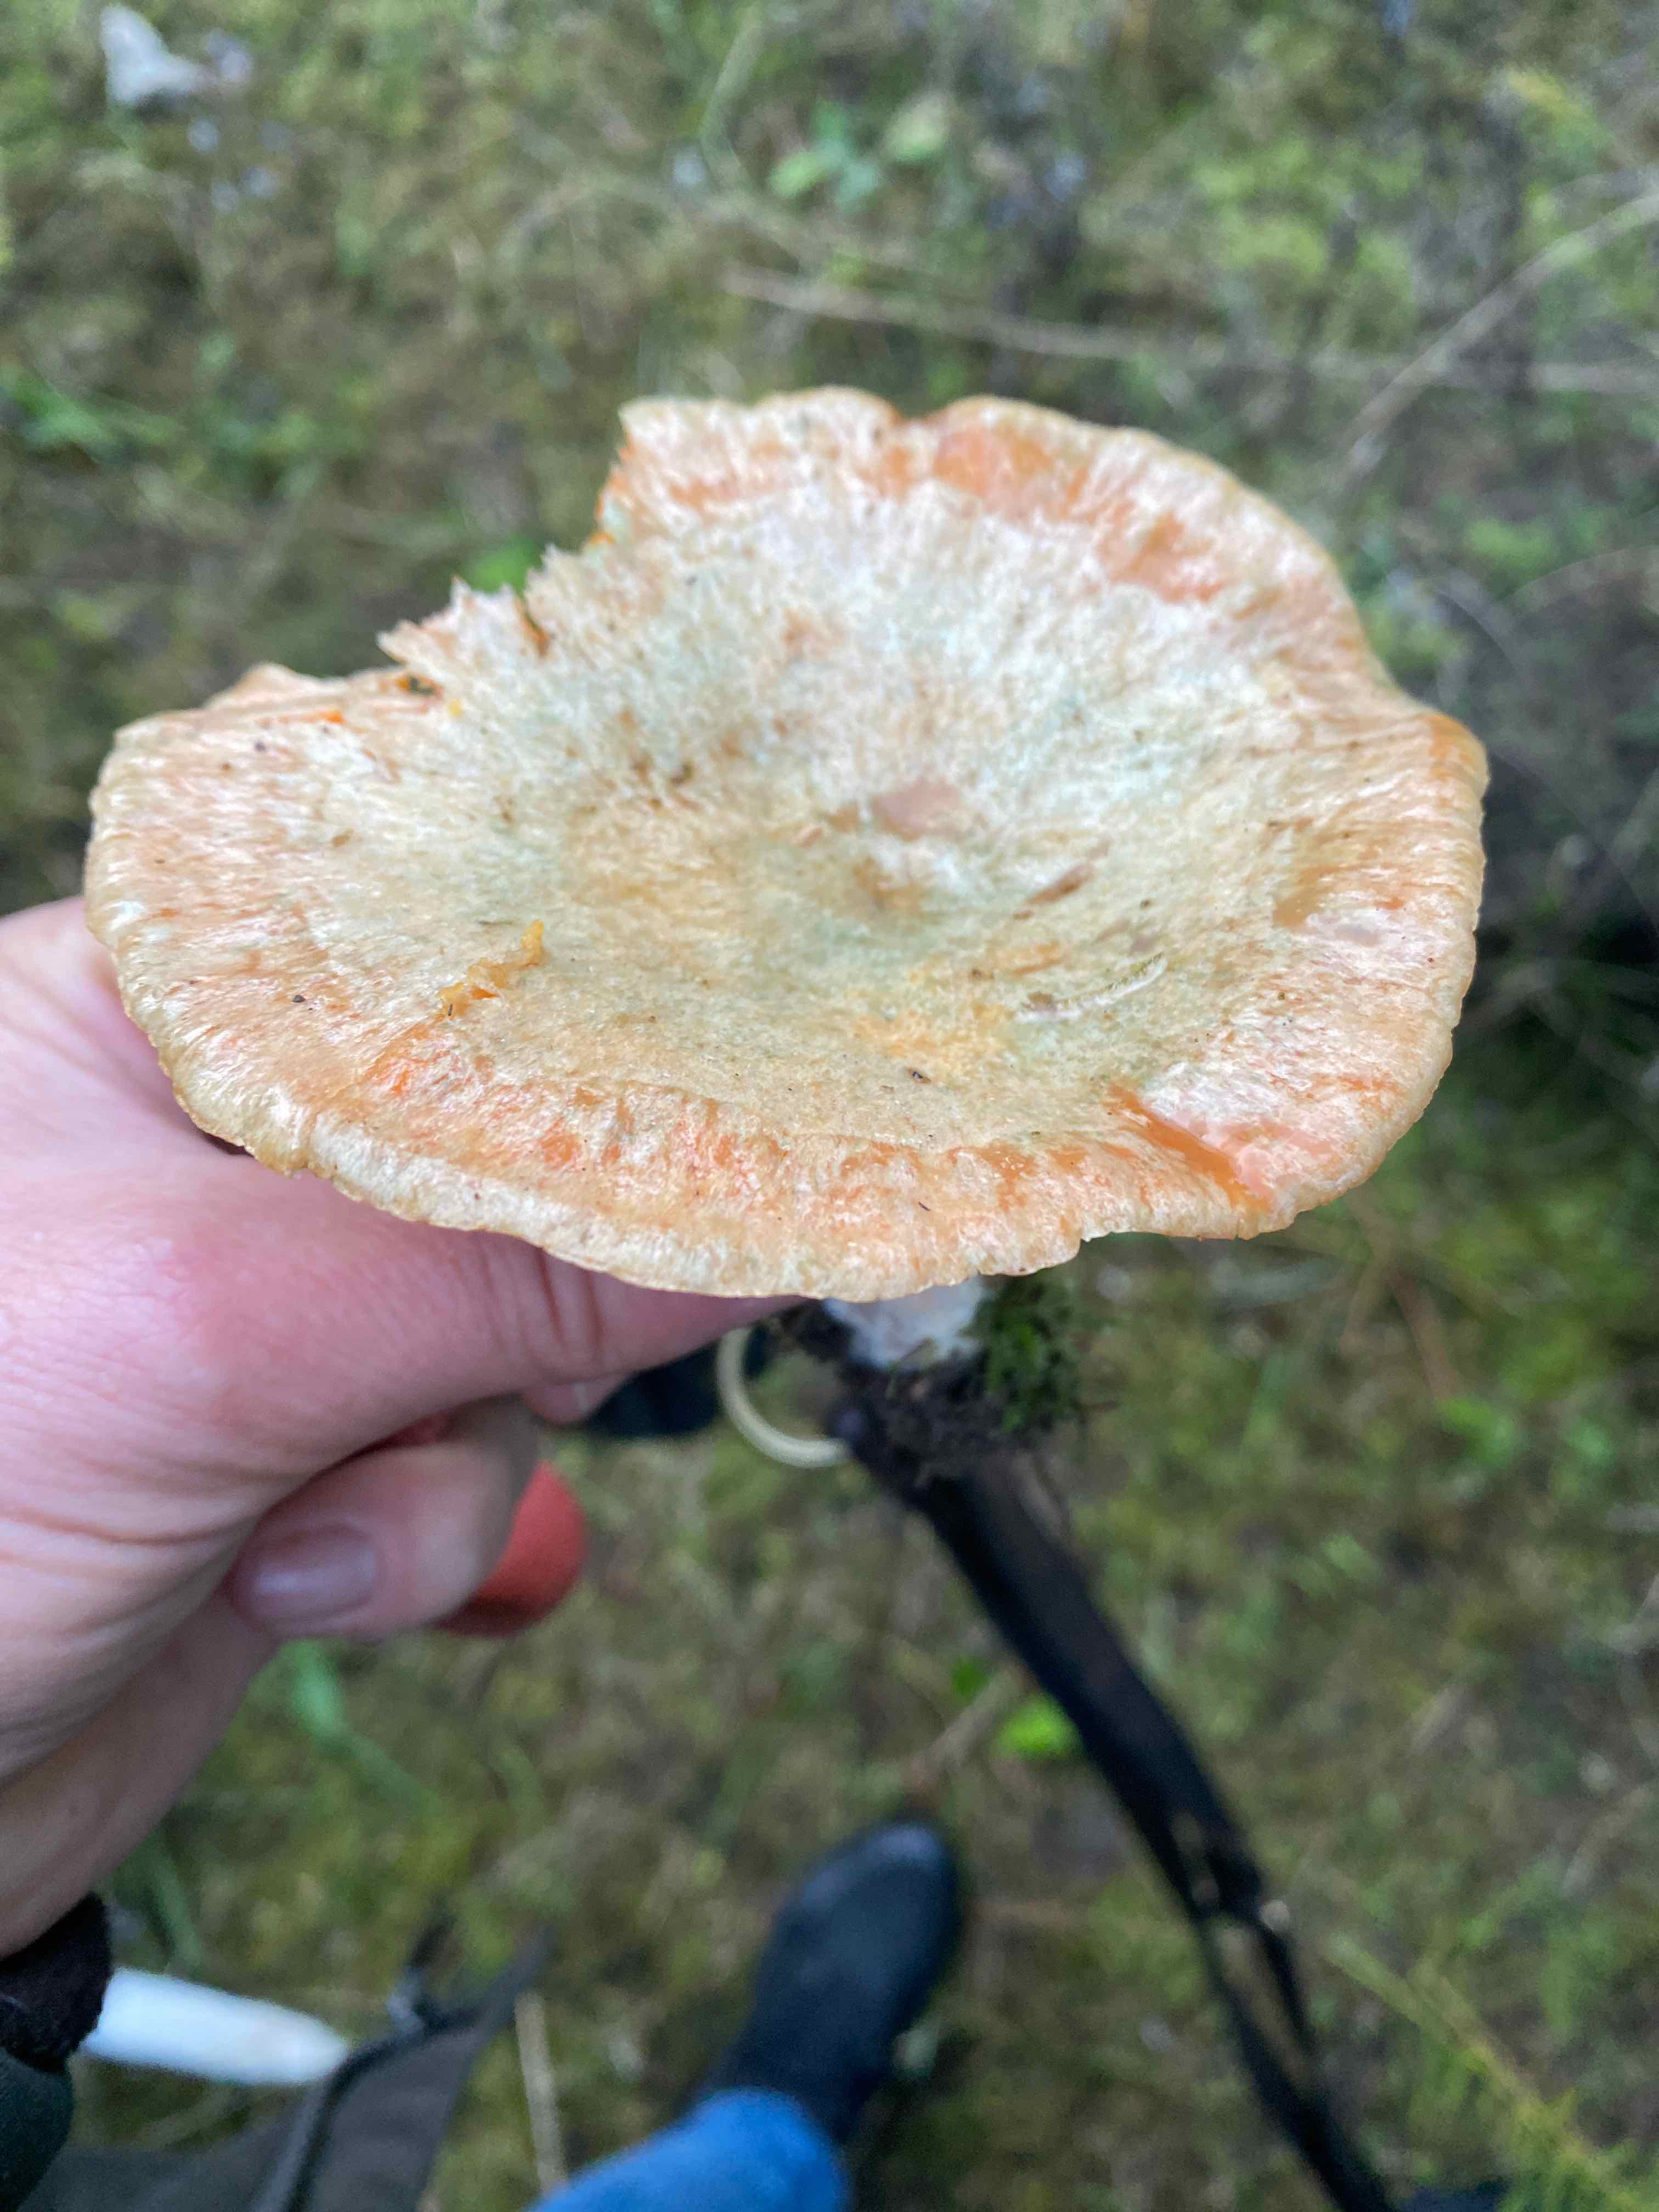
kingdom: Fungi
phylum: Basidiomycota
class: Agaricomycetes
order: Russulales
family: Russulaceae
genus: Lactarius
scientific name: Lactarius deterrimus
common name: gran-mælkehat
